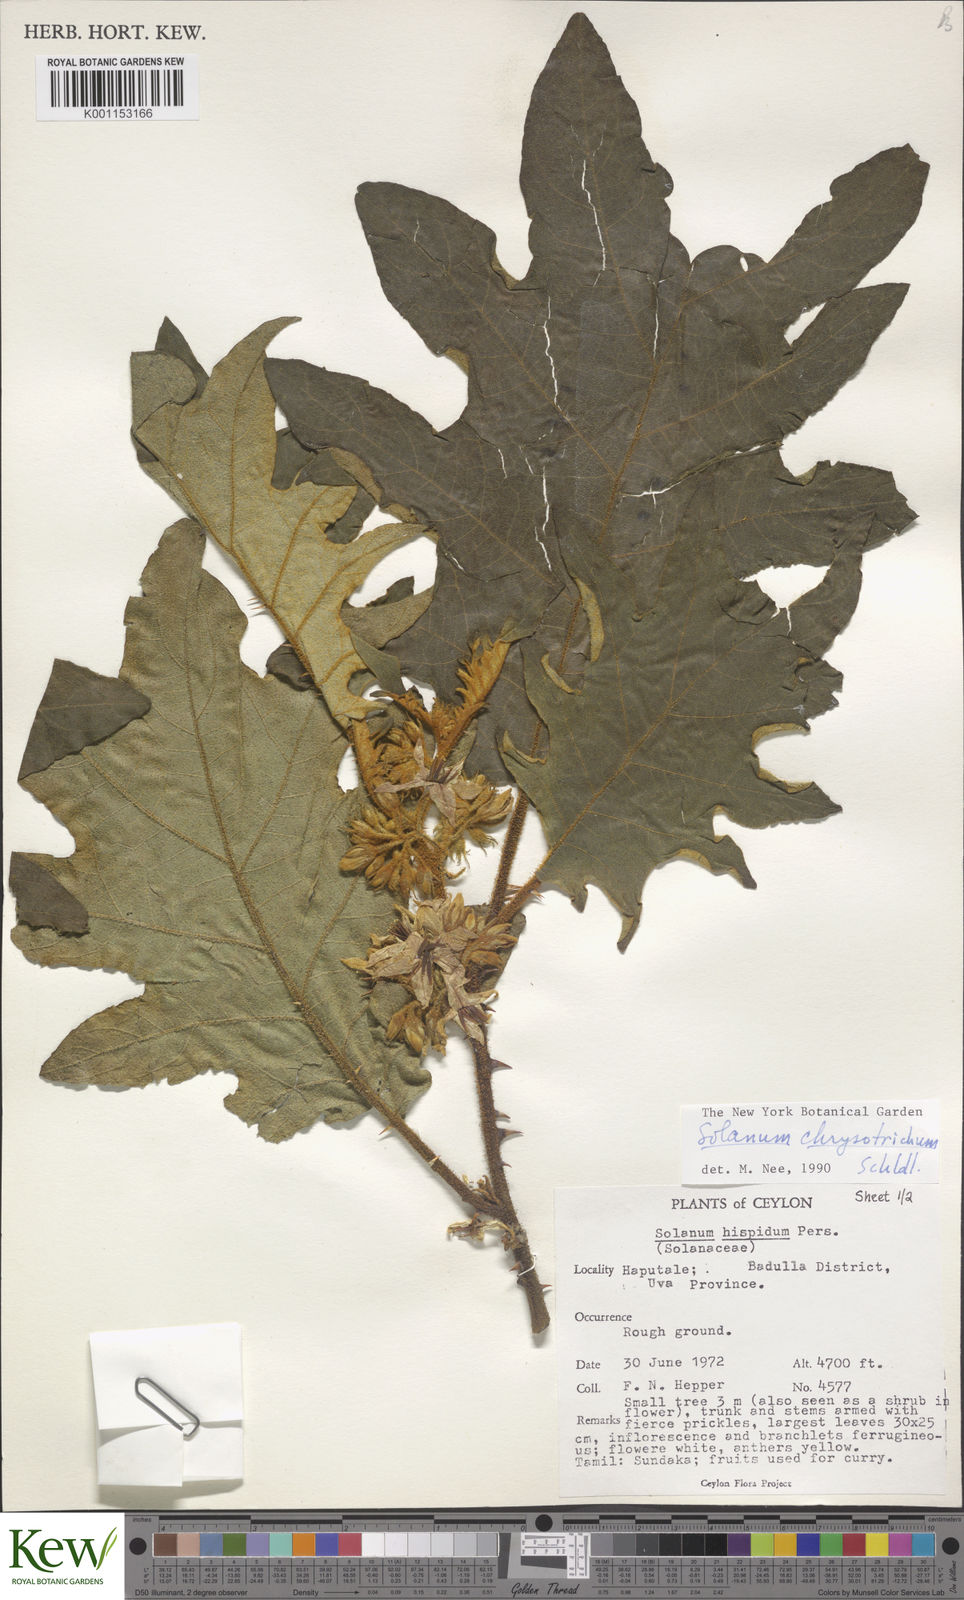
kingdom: Plantae
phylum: Tracheophyta
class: Magnoliopsida
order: Solanales
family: Solanaceae
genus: Solanum
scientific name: Solanum asperolanatum
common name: Devil's-fig
